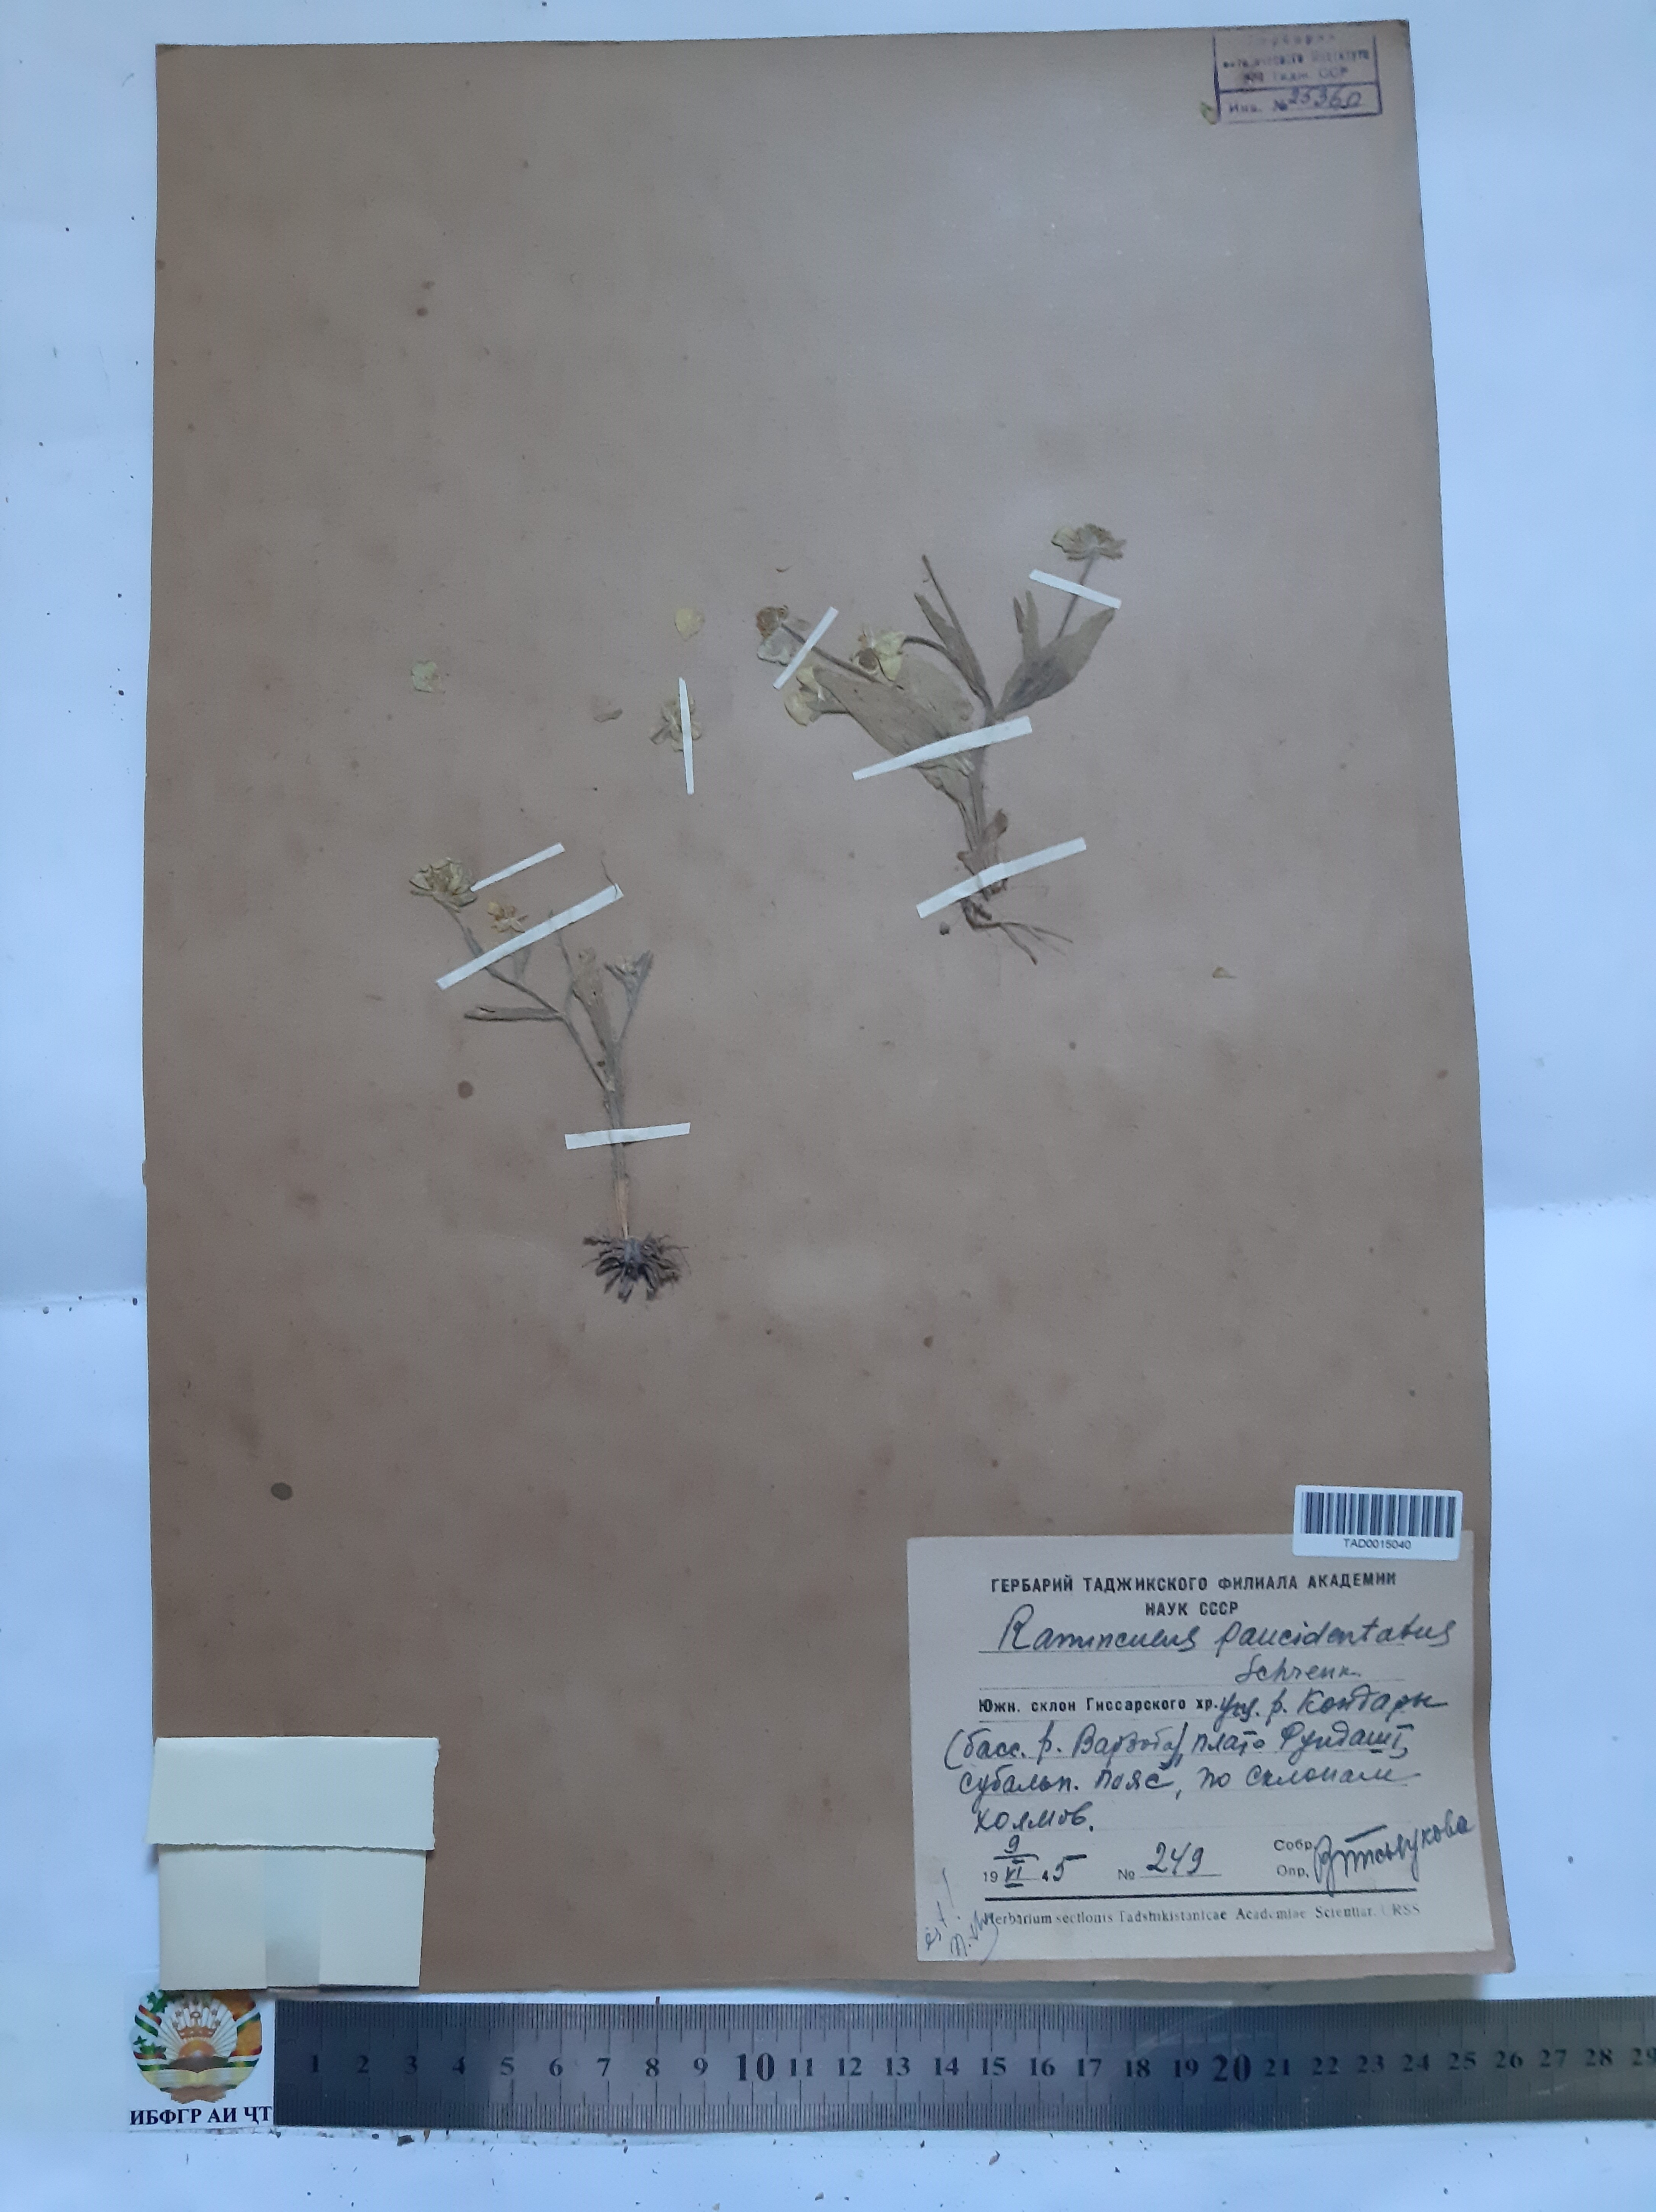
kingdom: Plantae
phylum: Tracheophyta
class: Magnoliopsida
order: Ranunculales
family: Ranunculaceae
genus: Ranunculus
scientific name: Ranunculus paucidentatus
